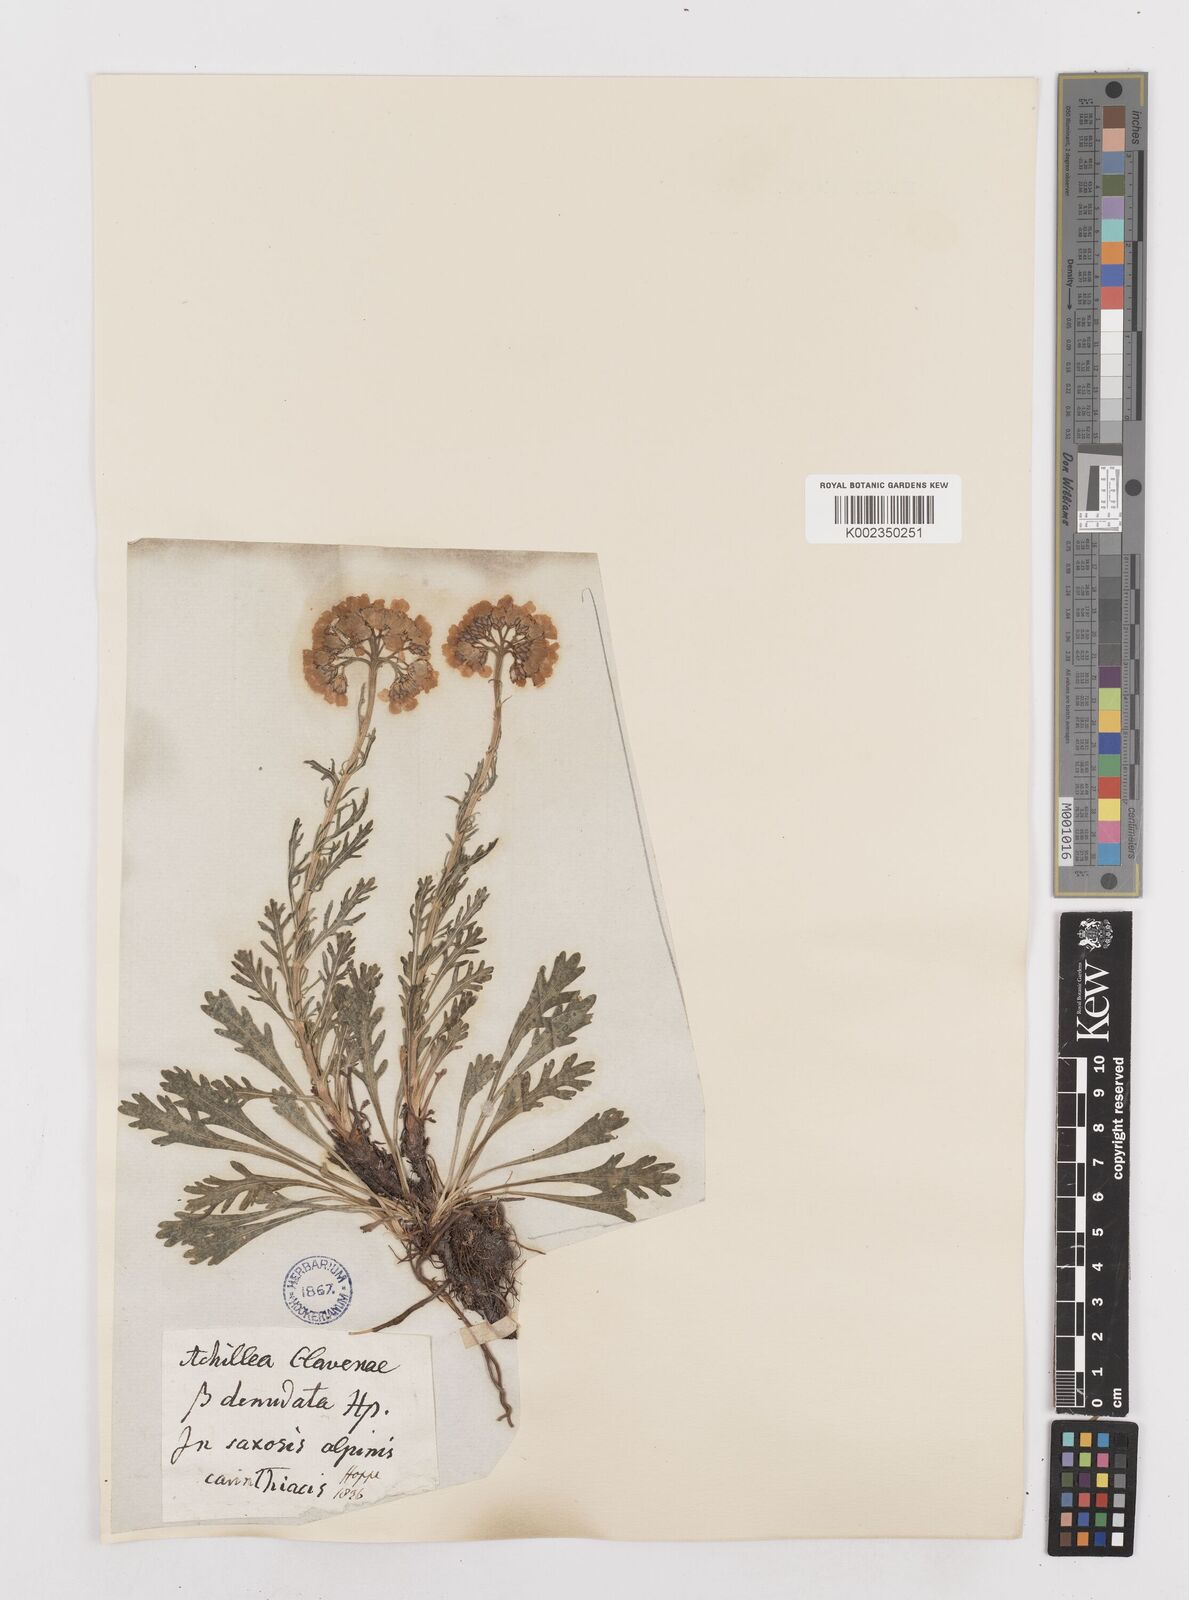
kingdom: Plantae
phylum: Tracheophyta
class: Magnoliopsida
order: Asterales
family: Asteraceae
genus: Achillea
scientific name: Achillea clavennae
